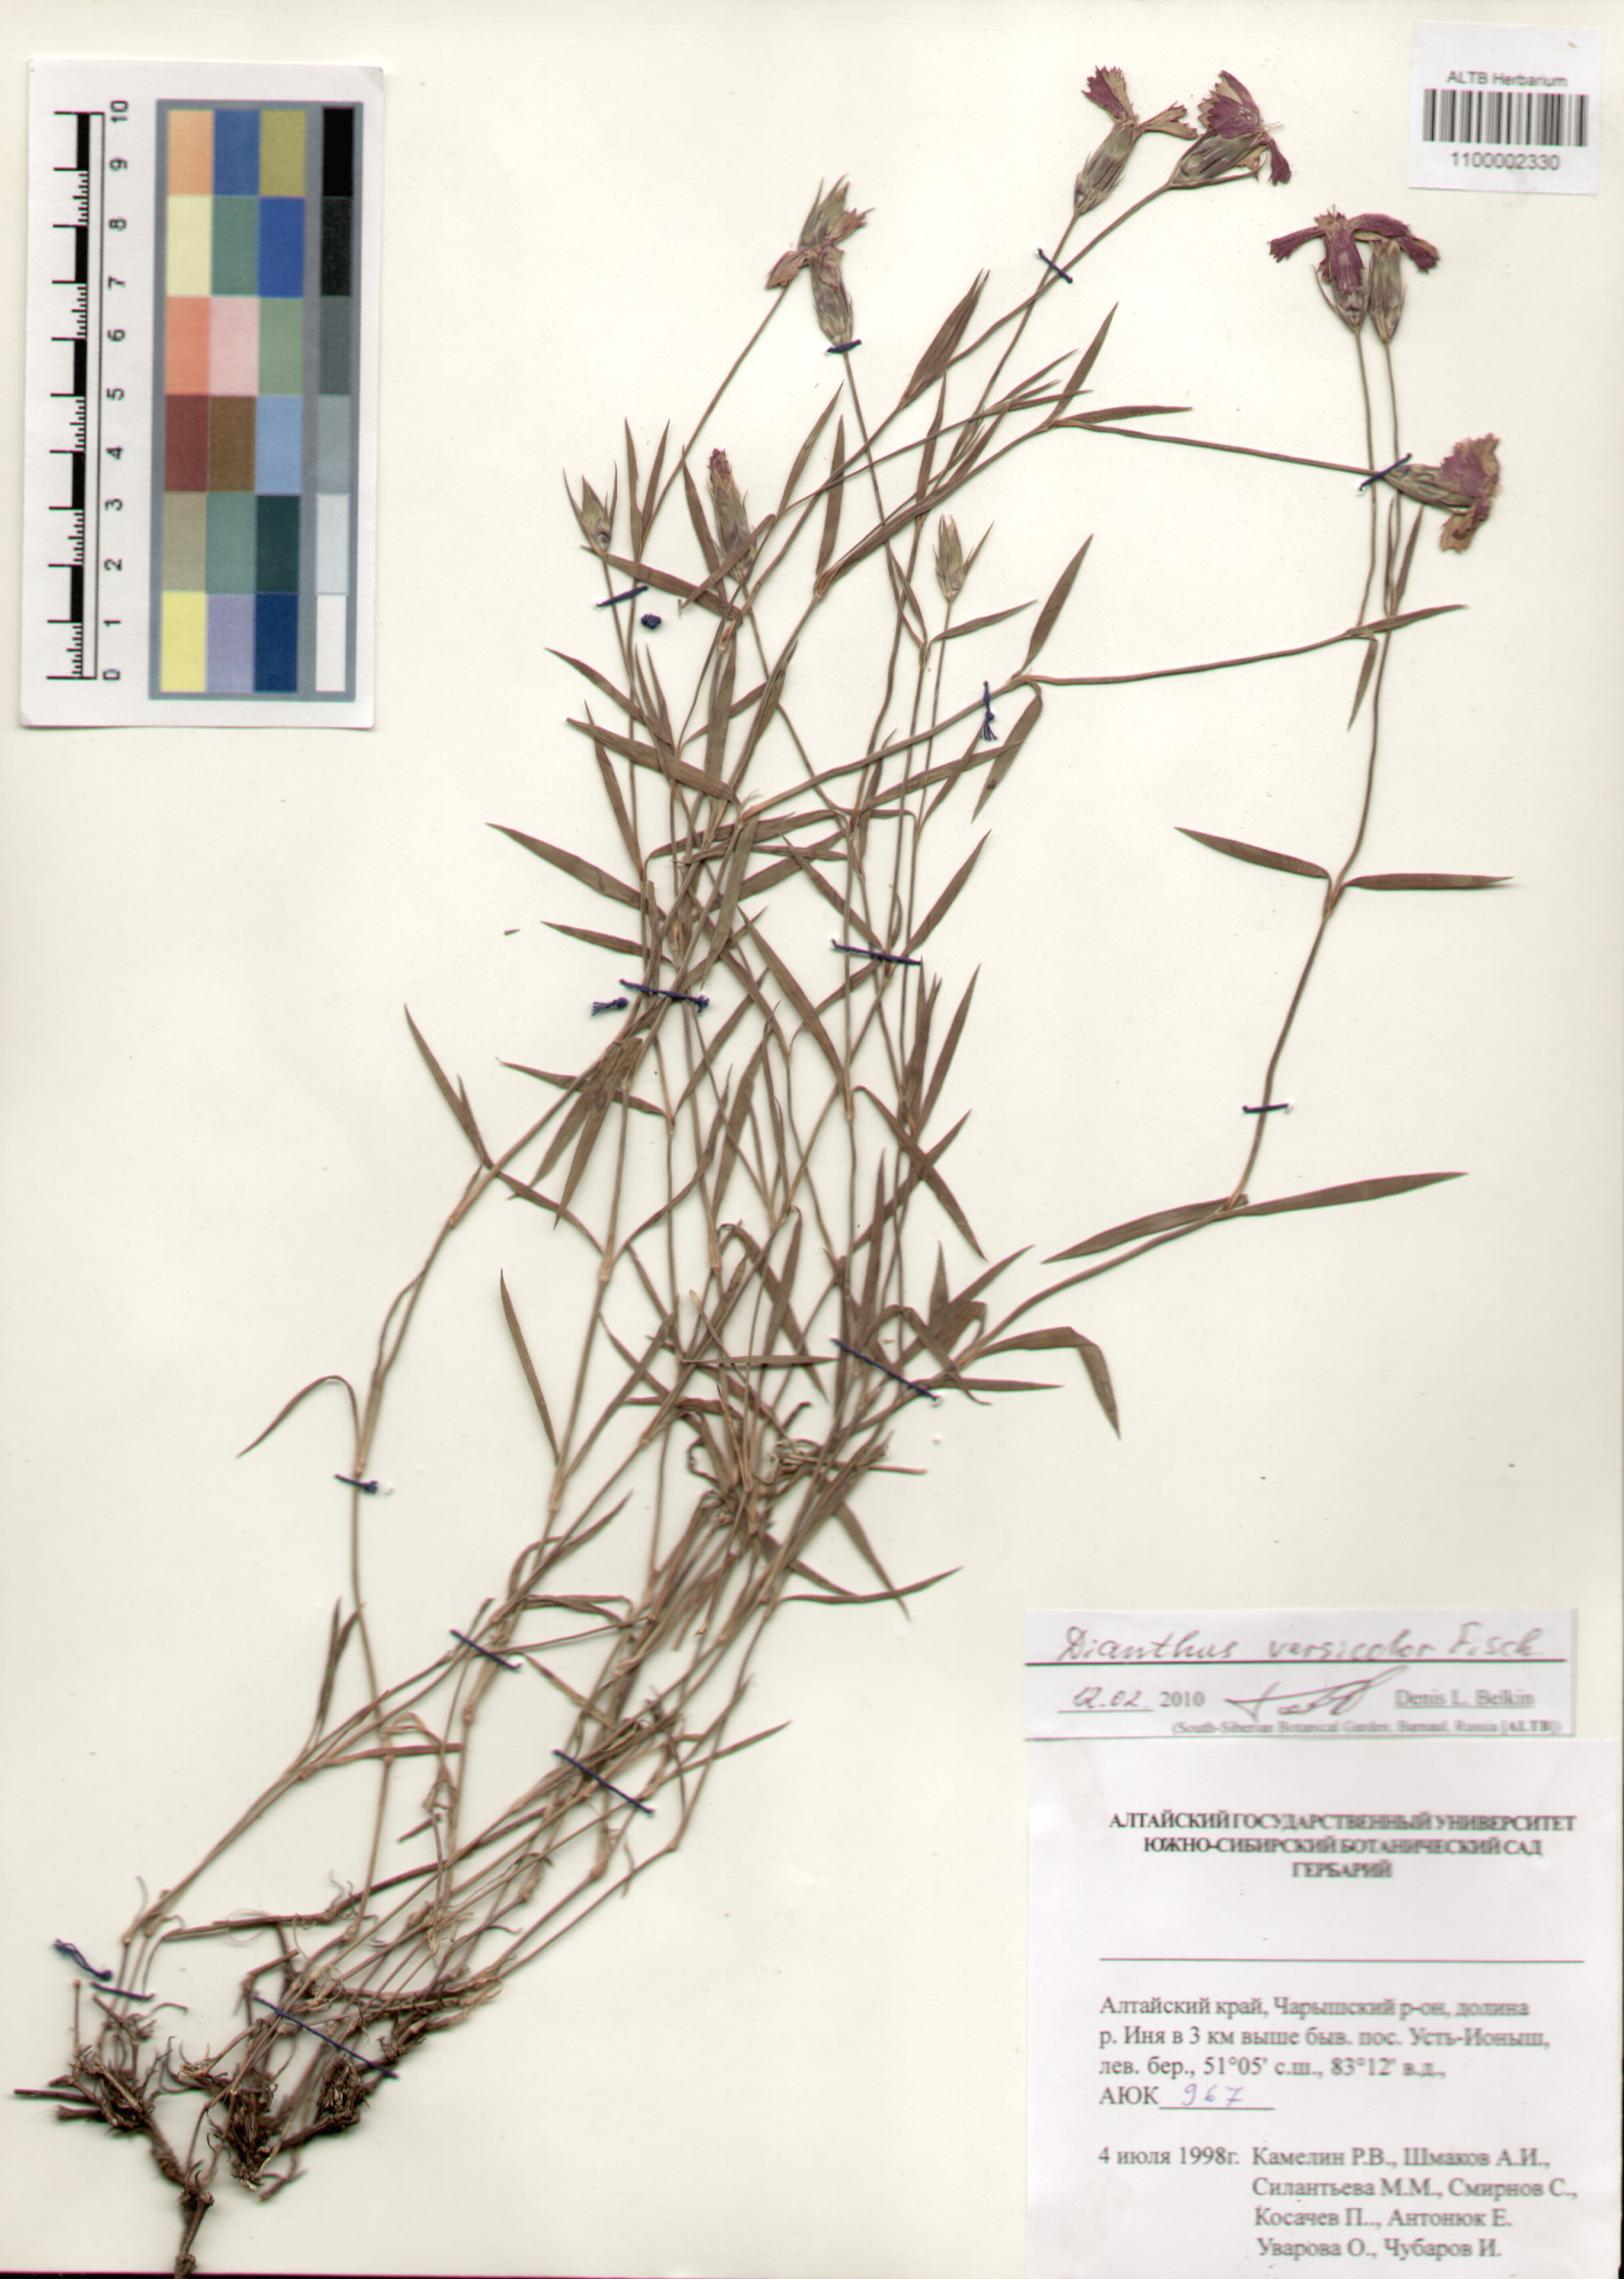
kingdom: Plantae
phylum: Tracheophyta
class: Magnoliopsida
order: Caryophyllales
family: Caryophyllaceae
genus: Dianthus
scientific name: Dianthus chinensis
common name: Rainbow pink
